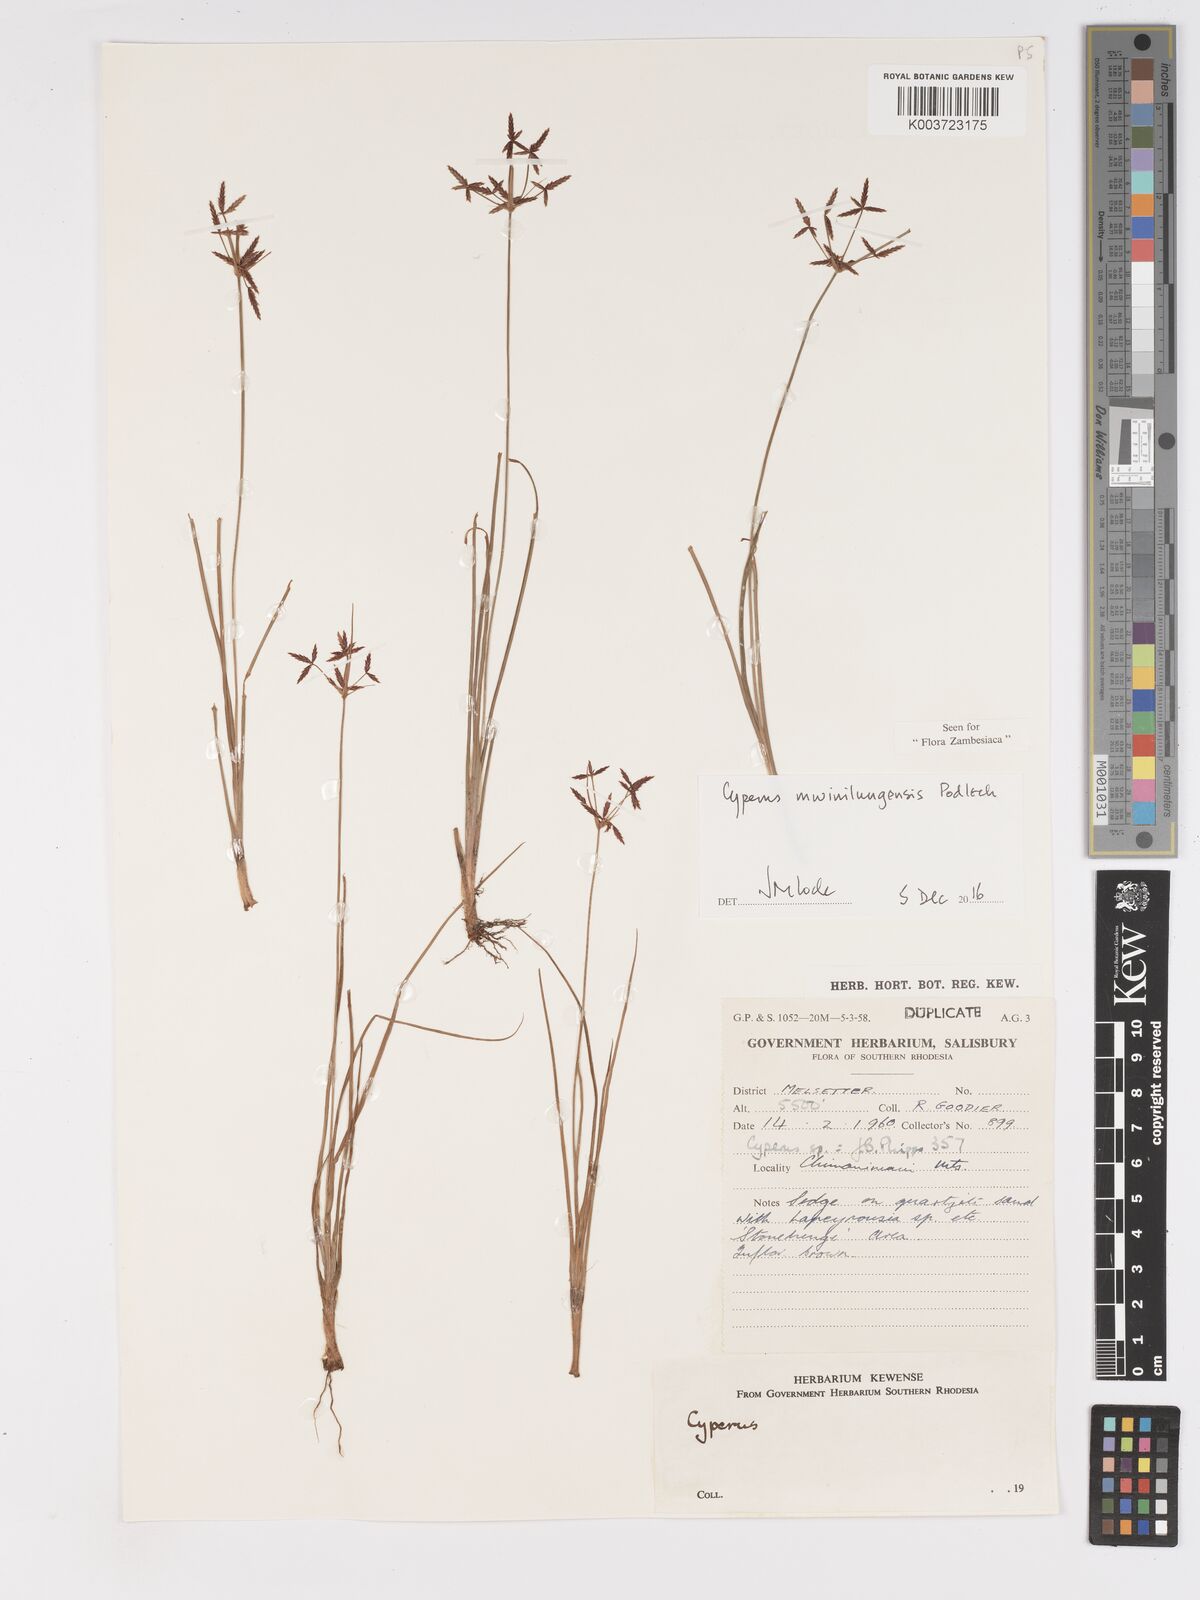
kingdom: Plantae
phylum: Tracheophyta
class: Liliopsida
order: Poales
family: Cyperaceae
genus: Cyperus
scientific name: Cyperus mwinilungensis
